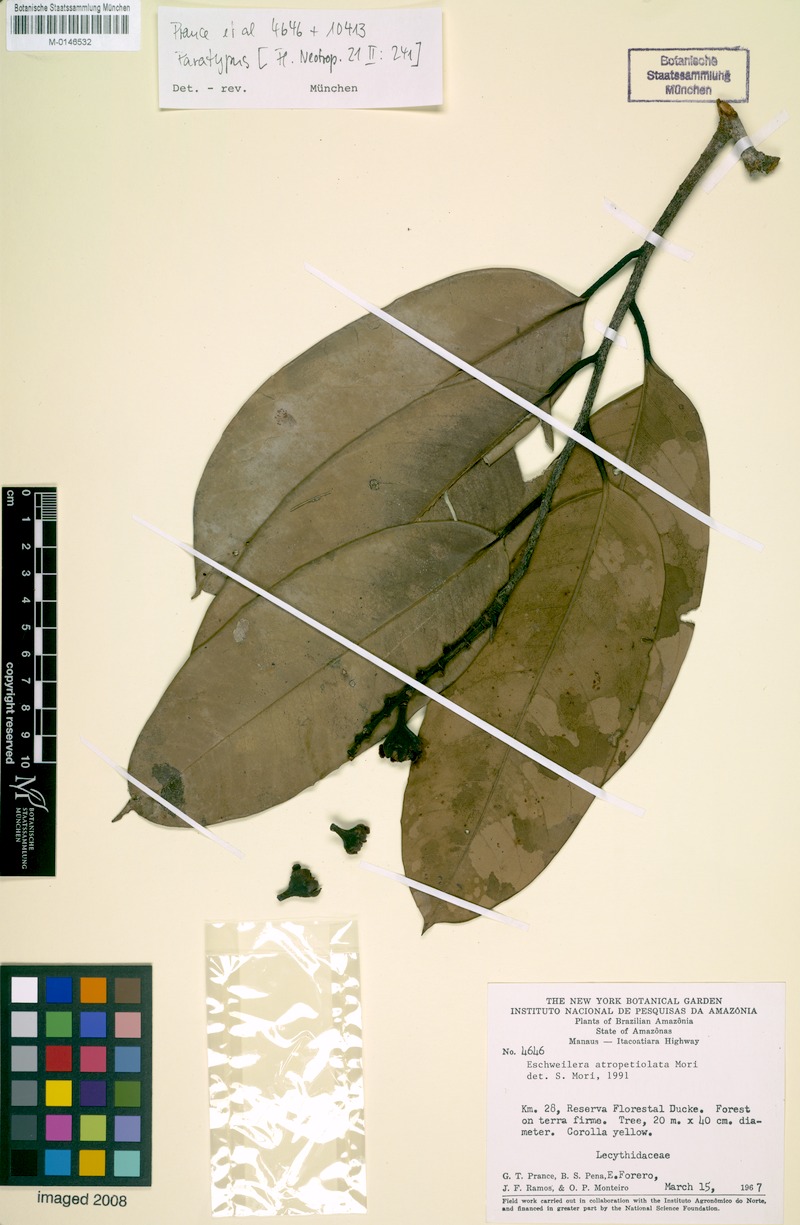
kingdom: Plantae
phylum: Tracheophyta
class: Magnoliopsida
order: Ericales
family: Lecythidaceae
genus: Eschweilera
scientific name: Eschweilera atropetiolata
